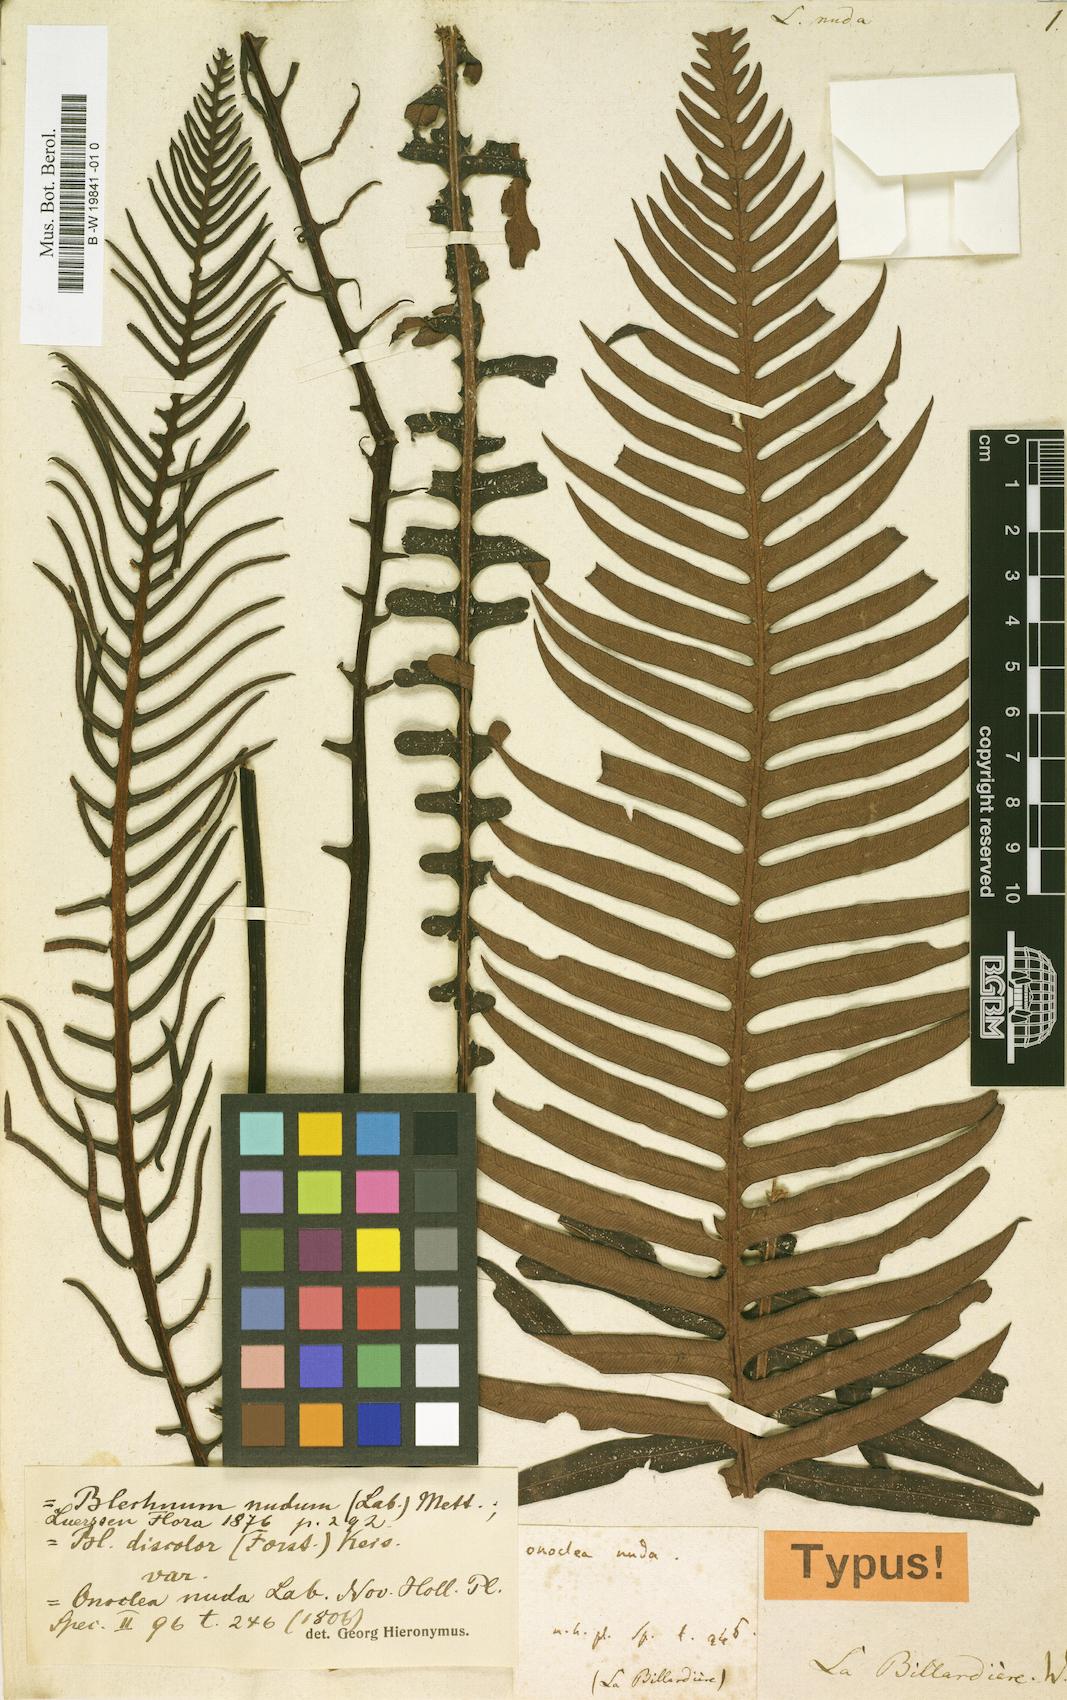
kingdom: Plantae
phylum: Tracheophyta
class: Polypodiopsida
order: Polypodiales
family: Blechnaceae
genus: Lomaria
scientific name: Lomaria nuda
